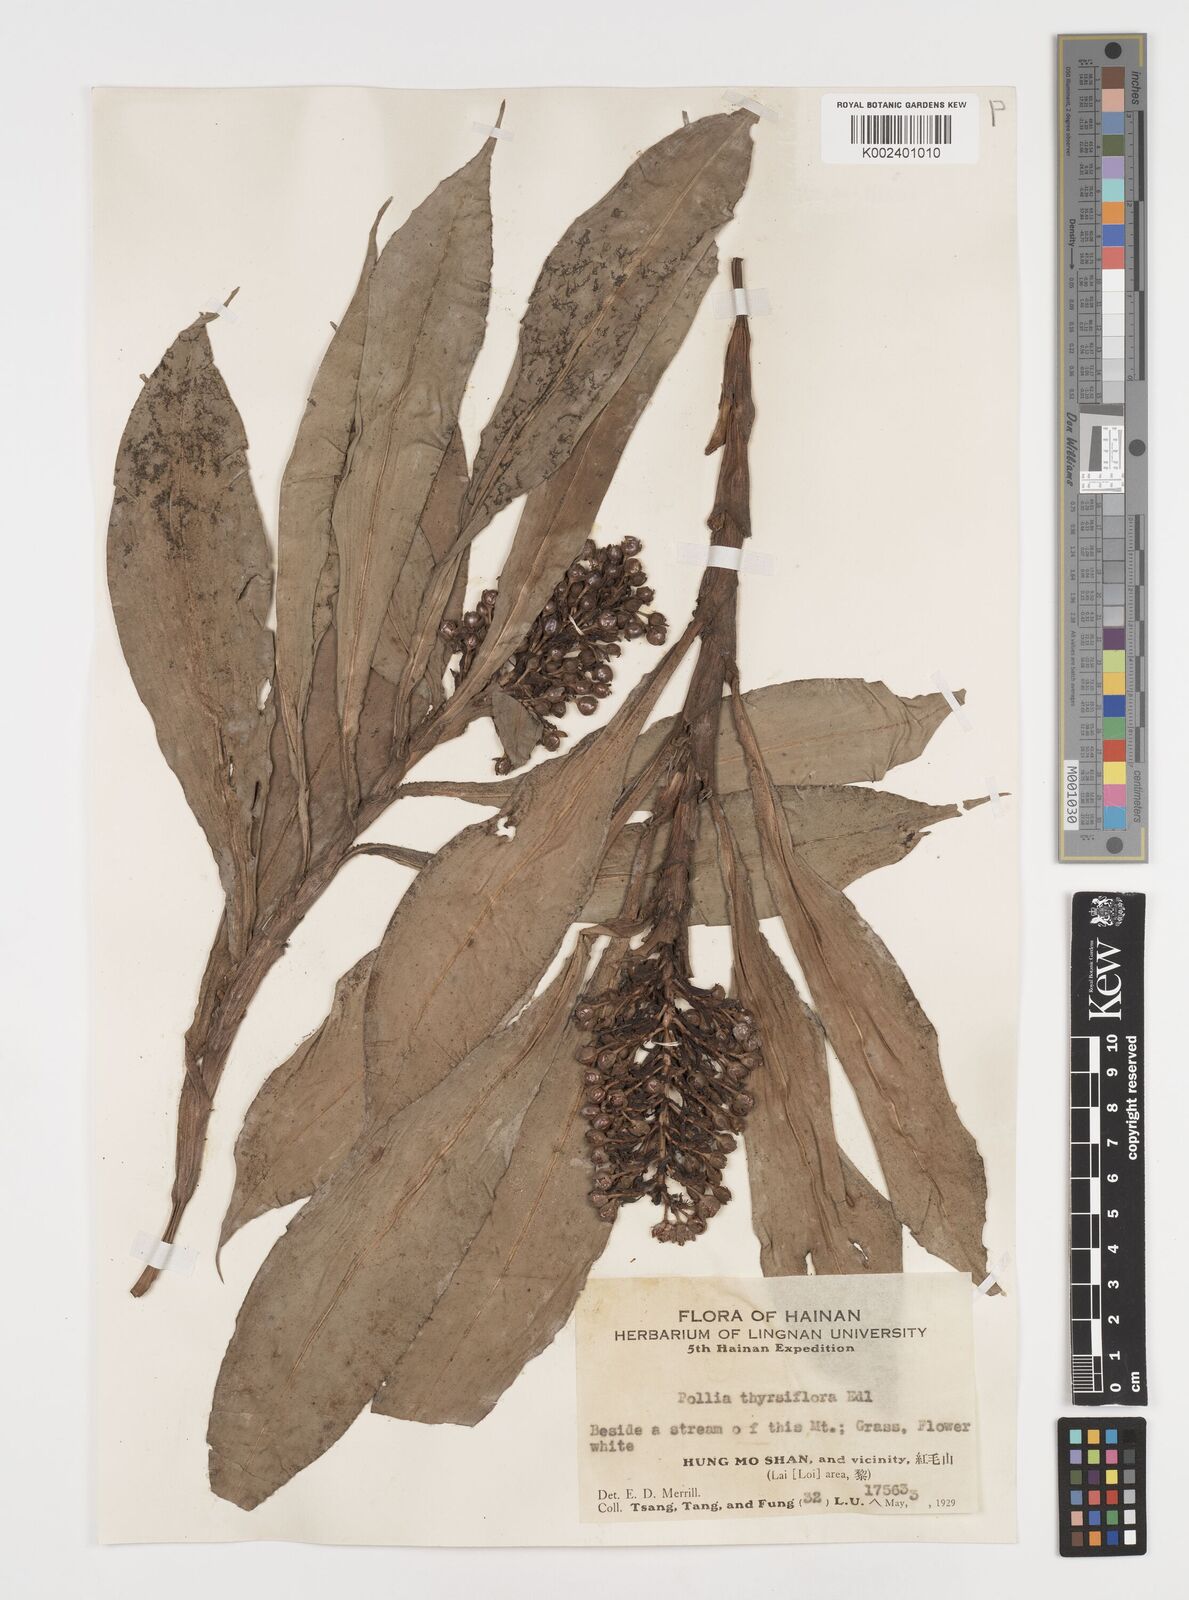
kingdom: Plantae
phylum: Tracheophyta
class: Liliopsida
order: Commelinales
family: Commelinaceae
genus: Pollia
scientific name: Pollia thyrsiflora
